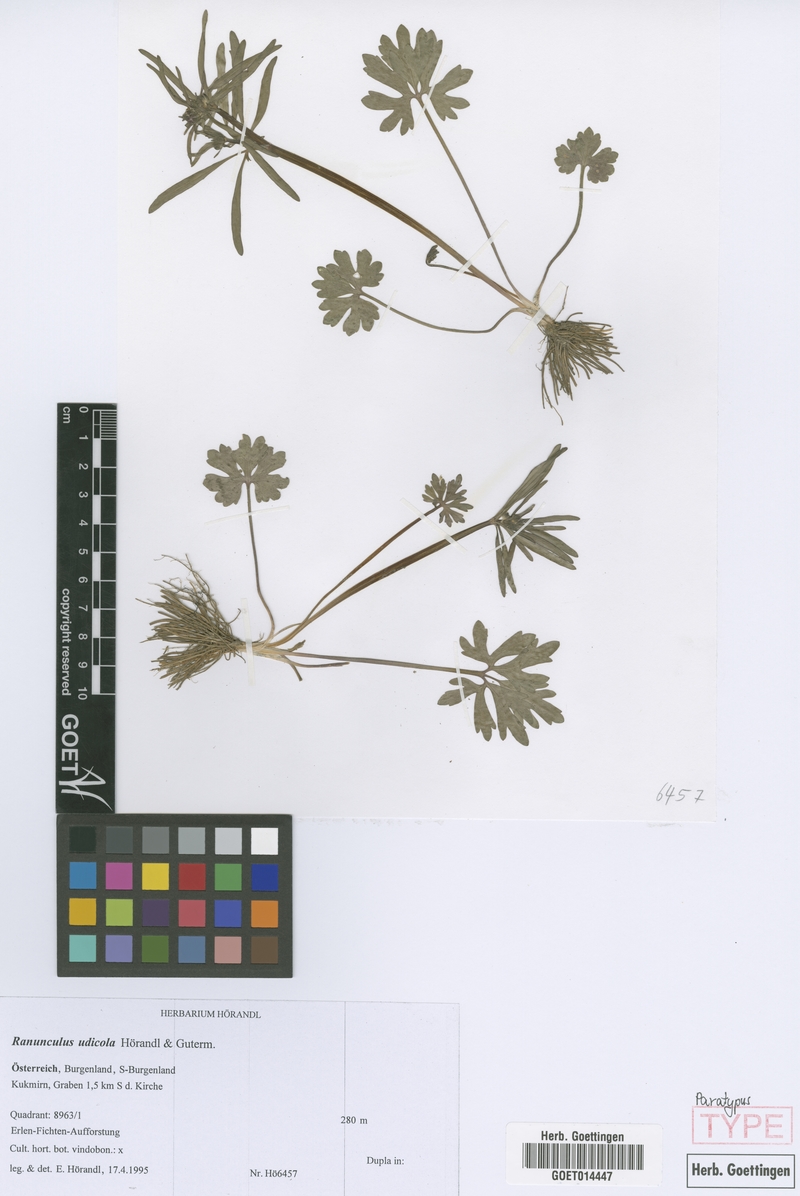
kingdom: Plantae
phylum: Tracheophyta
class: Magnoliopsida
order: Ranunculales
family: Ranunculaceae
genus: Ranunculus
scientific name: Ranunculus udicola
